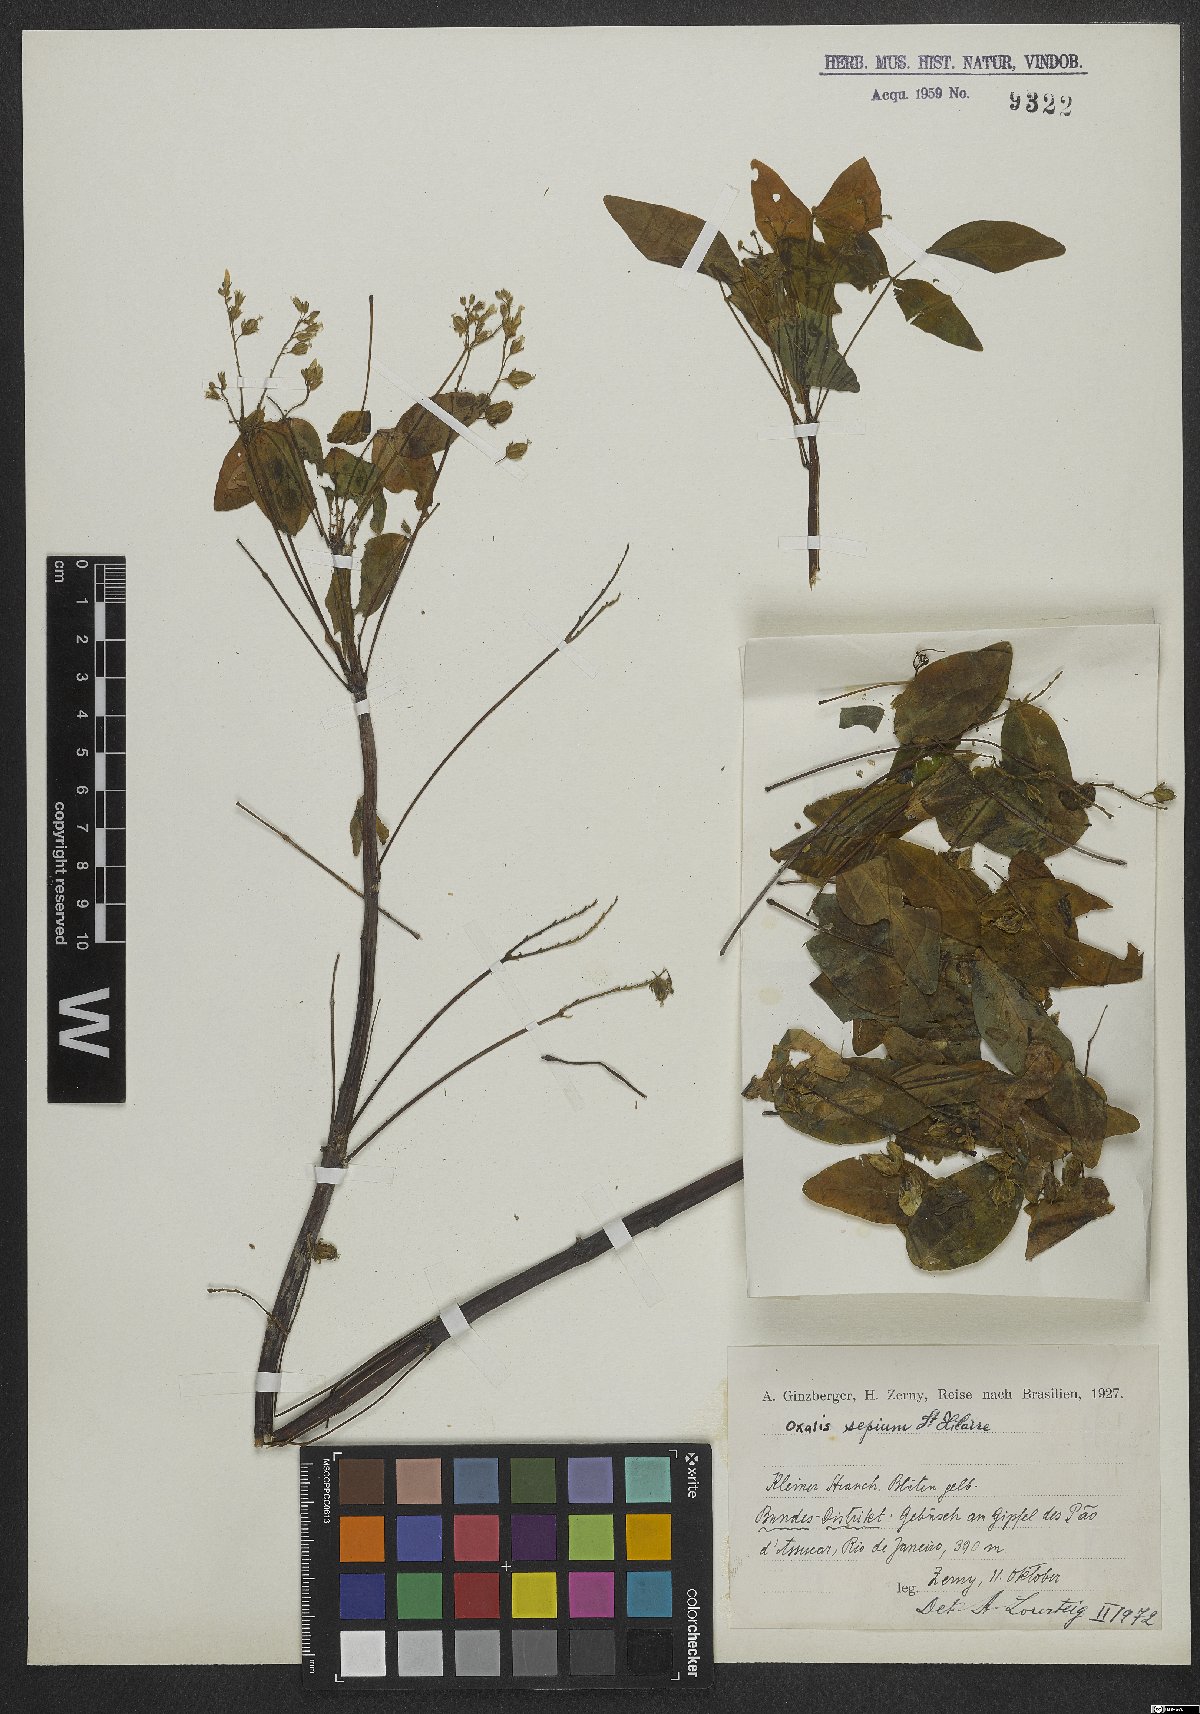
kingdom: Plantae
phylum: Tracheophyta
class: Magnoliopsida
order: Oxalidales
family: Oxalidaceae
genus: Oxalis
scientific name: Oxalis sepium
